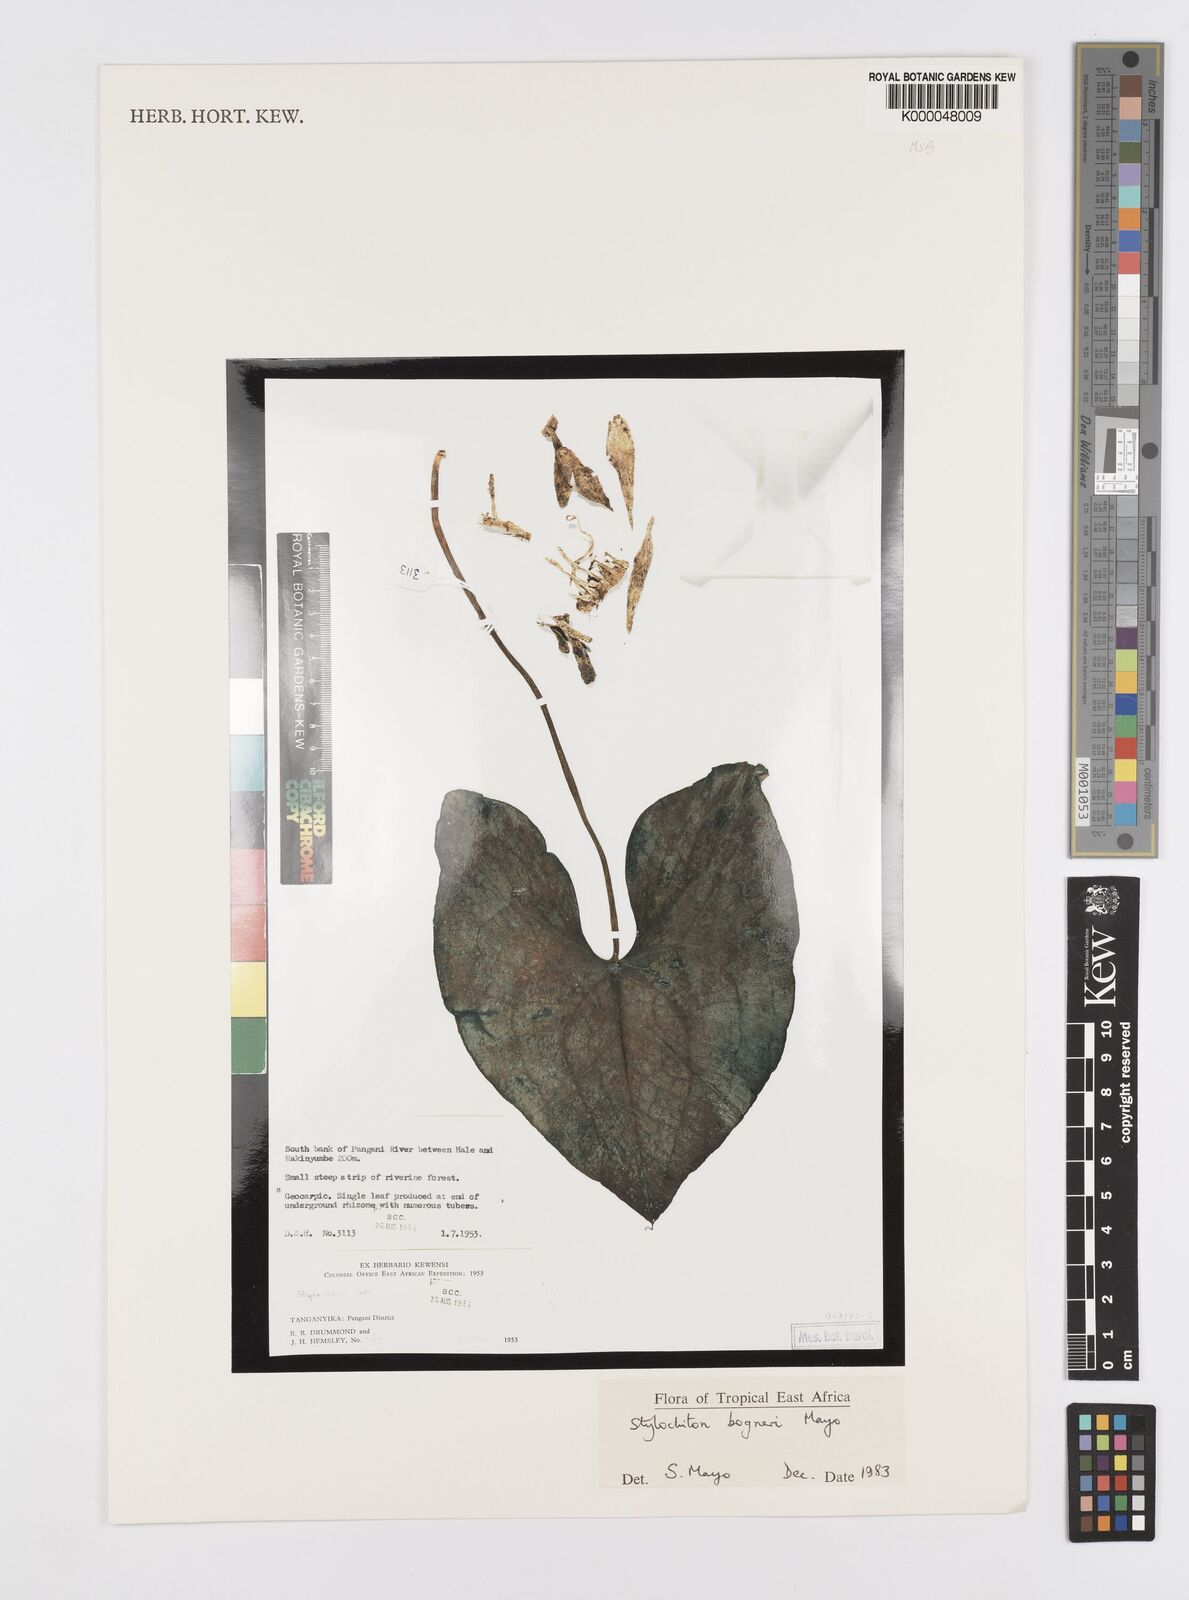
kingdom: Plantae
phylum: Tracheophyta
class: Liliopsida
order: Alismatales
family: Araceae
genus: Stylochaeton
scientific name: Stylochaeton bogneri
